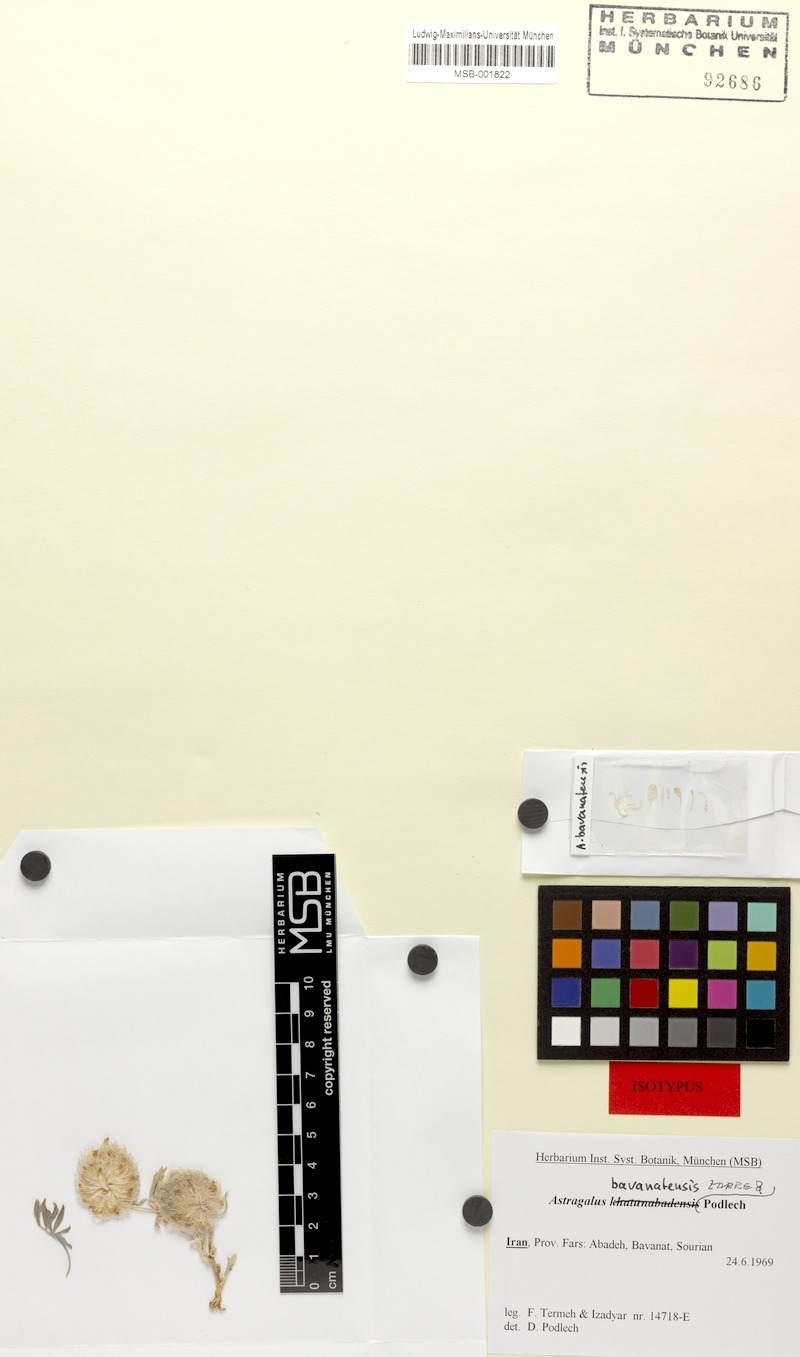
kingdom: Plantae
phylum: Tracheophyta
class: Magnoliopsida
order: Fabales
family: Fabaceae
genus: Astragalus
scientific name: Astragalus bavanatensis
